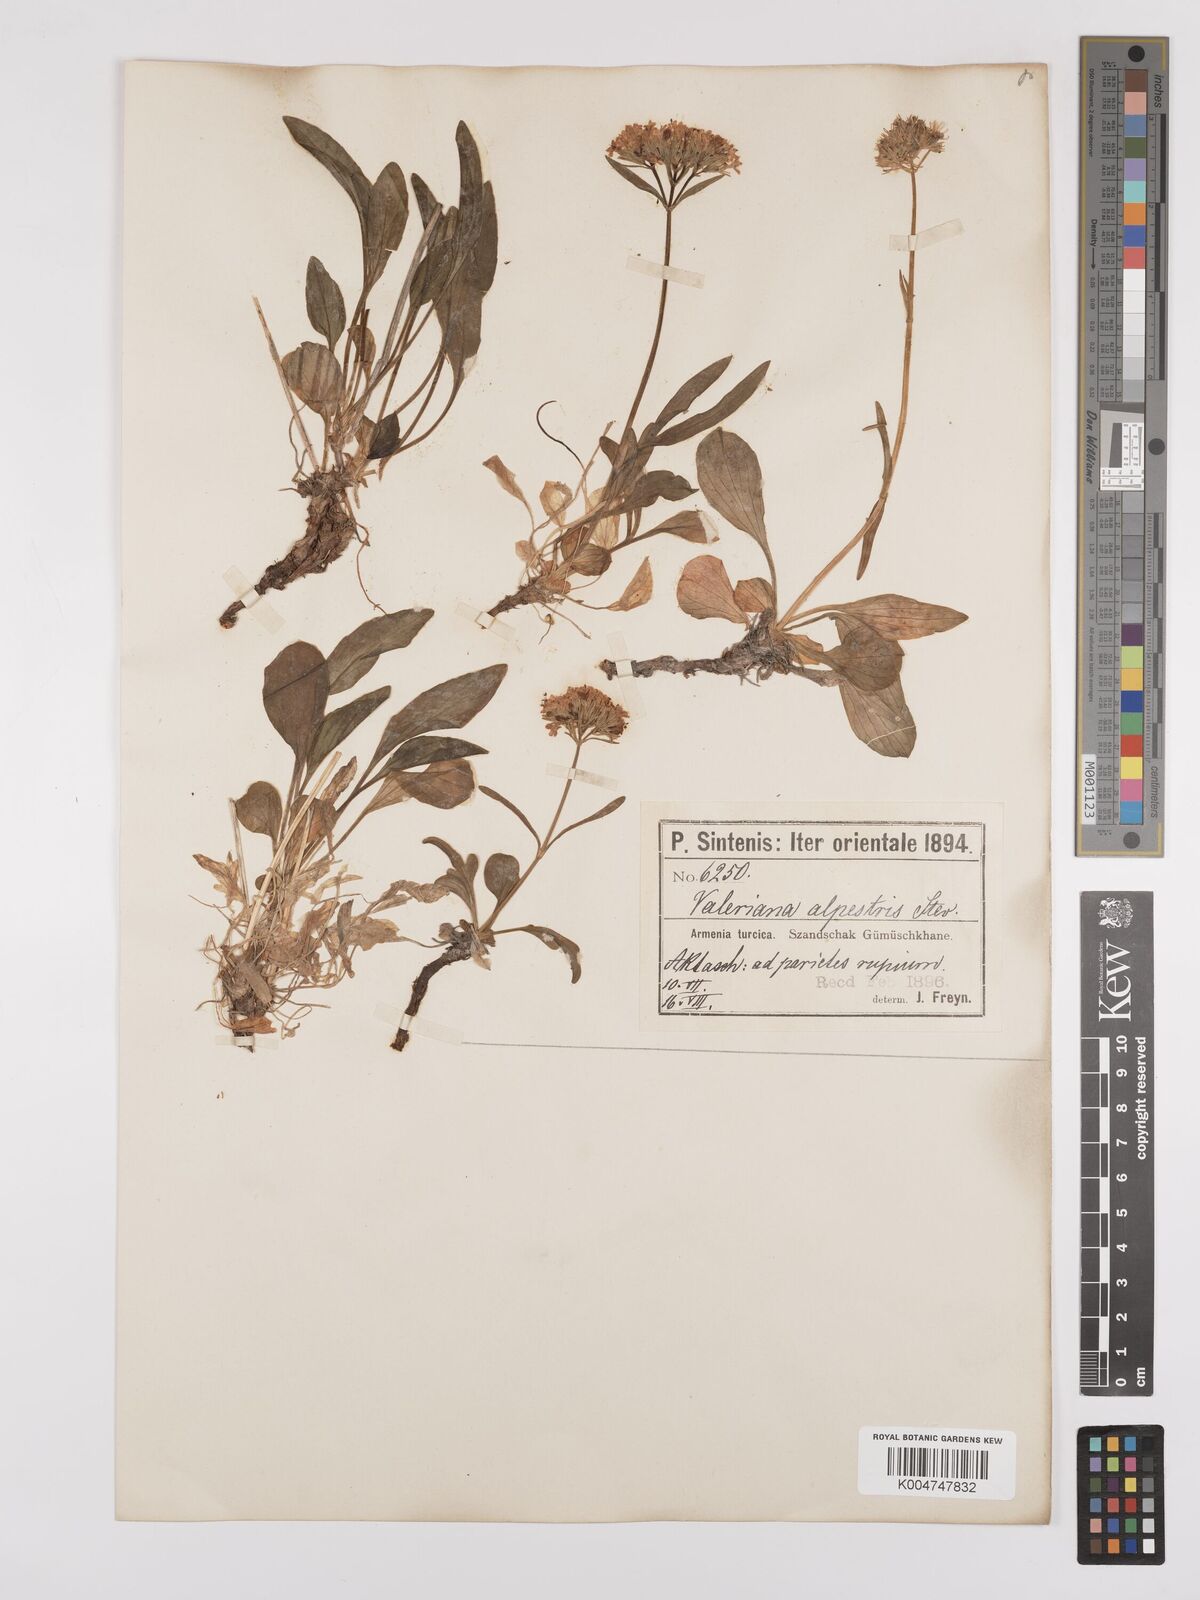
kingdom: Plantae
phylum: Tracheophyta
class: Magnoliopsida
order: Dipsacales
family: Caprifoliaceae
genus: Valeriana
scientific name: Valeriana alpestris
